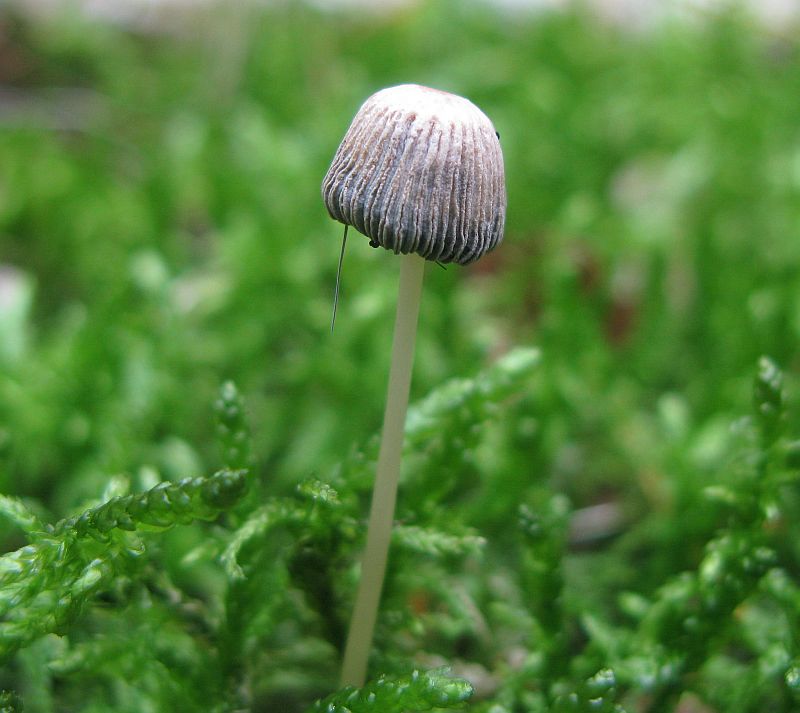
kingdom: Fungi
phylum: Basidiomycota
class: Agaricomycetes
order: Agaricales
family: Psathyrellaceae
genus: Parasola
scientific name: Parasola
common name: hjulhat
